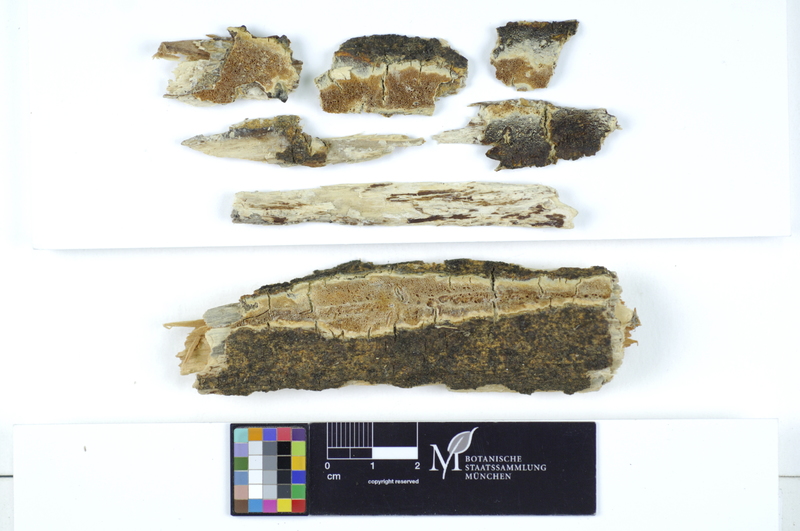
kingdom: Plantae
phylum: Tracheophyta
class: Magnoliopsida
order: Malpighiales
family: Salicaceae
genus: Salix
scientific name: Salix caprea
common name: Goat willow
